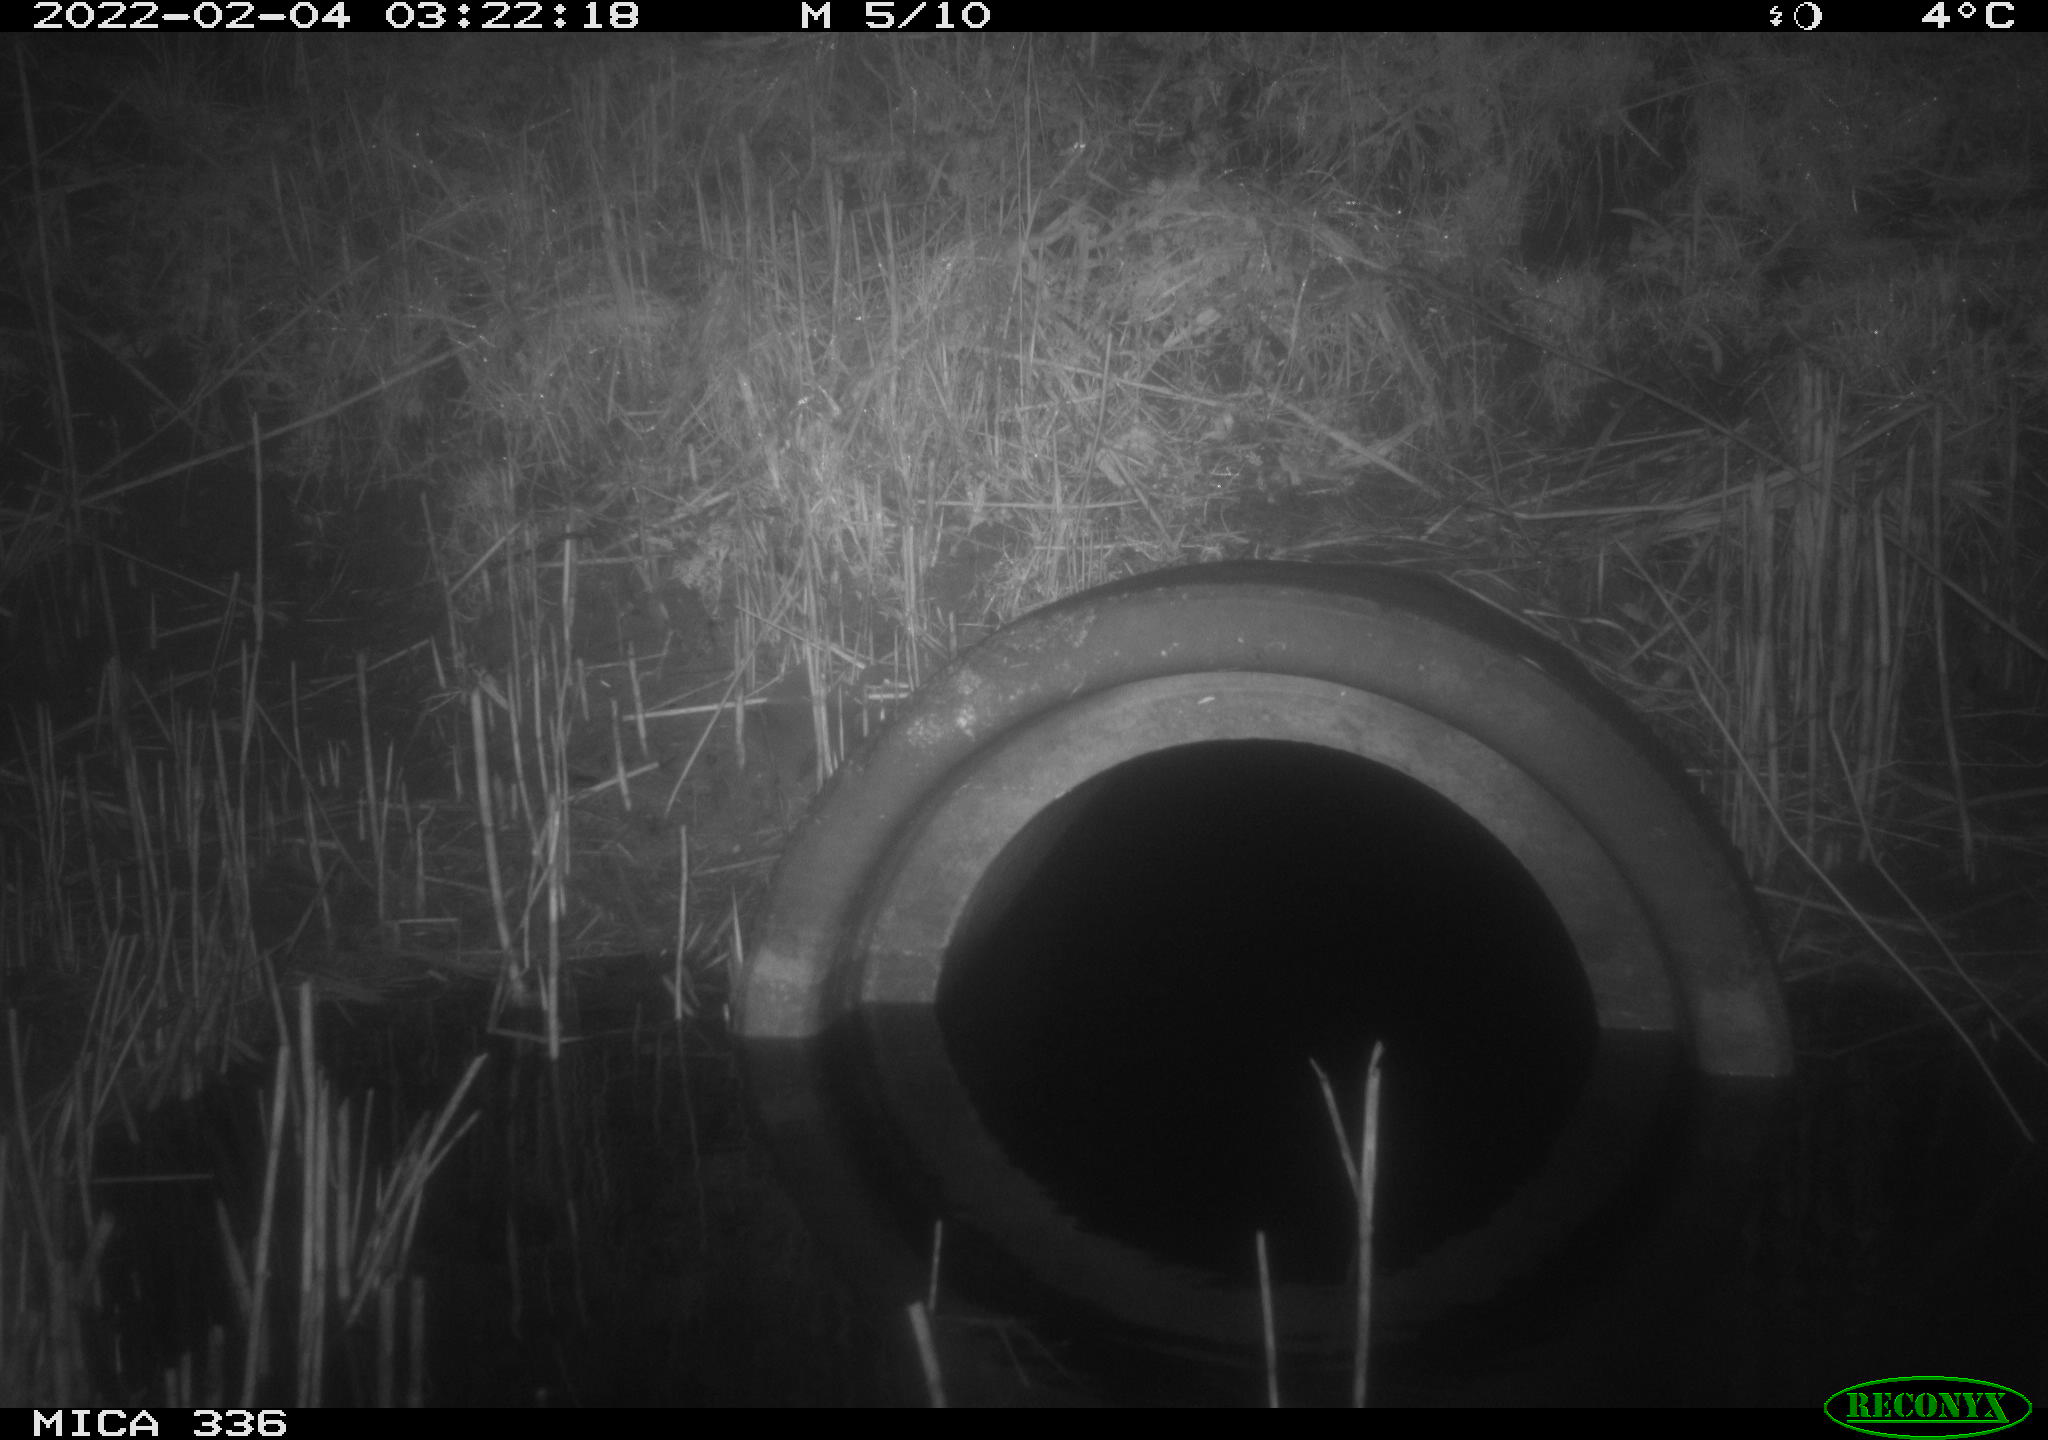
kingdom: Animalia
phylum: Chordata
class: Mammalia
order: Carnivora
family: Mustelidae
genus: Mustela
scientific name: Mustela putorius
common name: European polecat
